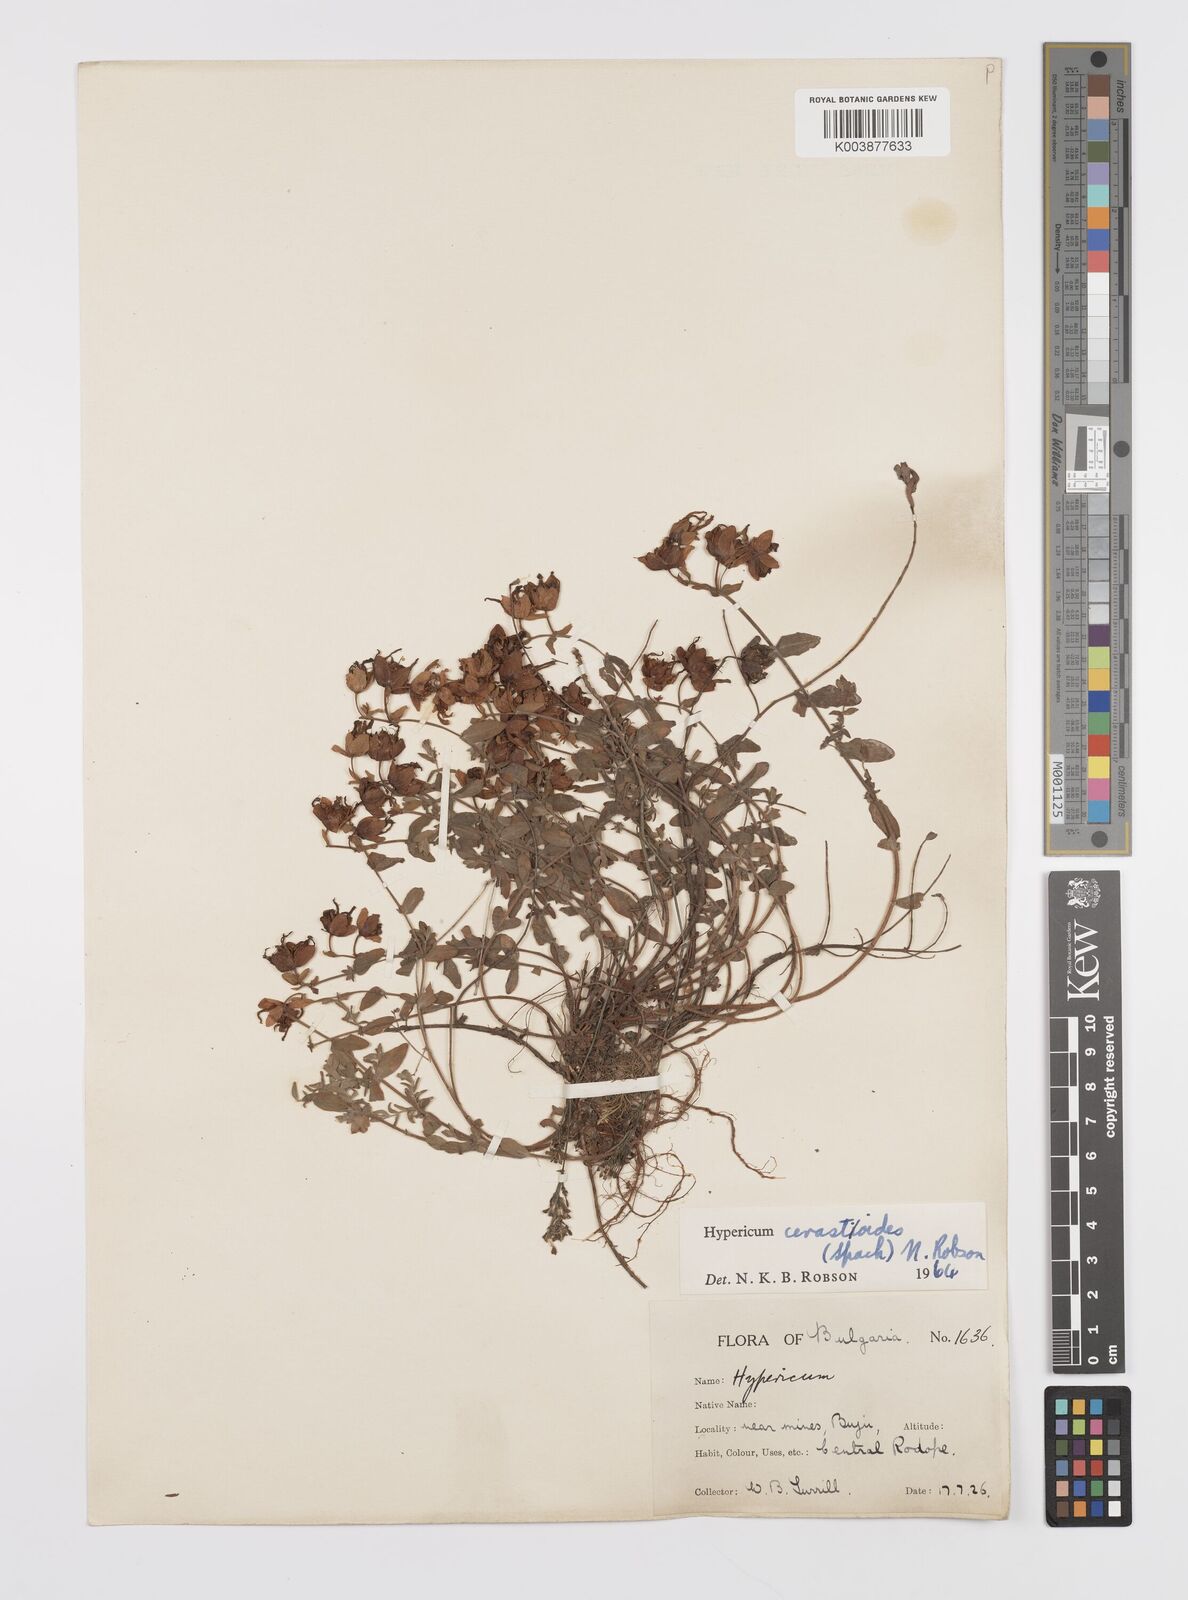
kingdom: Plantae
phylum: Tracheophyta
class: Magnoliopsida
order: Malpighiales
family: Hypericaceae
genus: Hypericum
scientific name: Hypericum cerastoides
